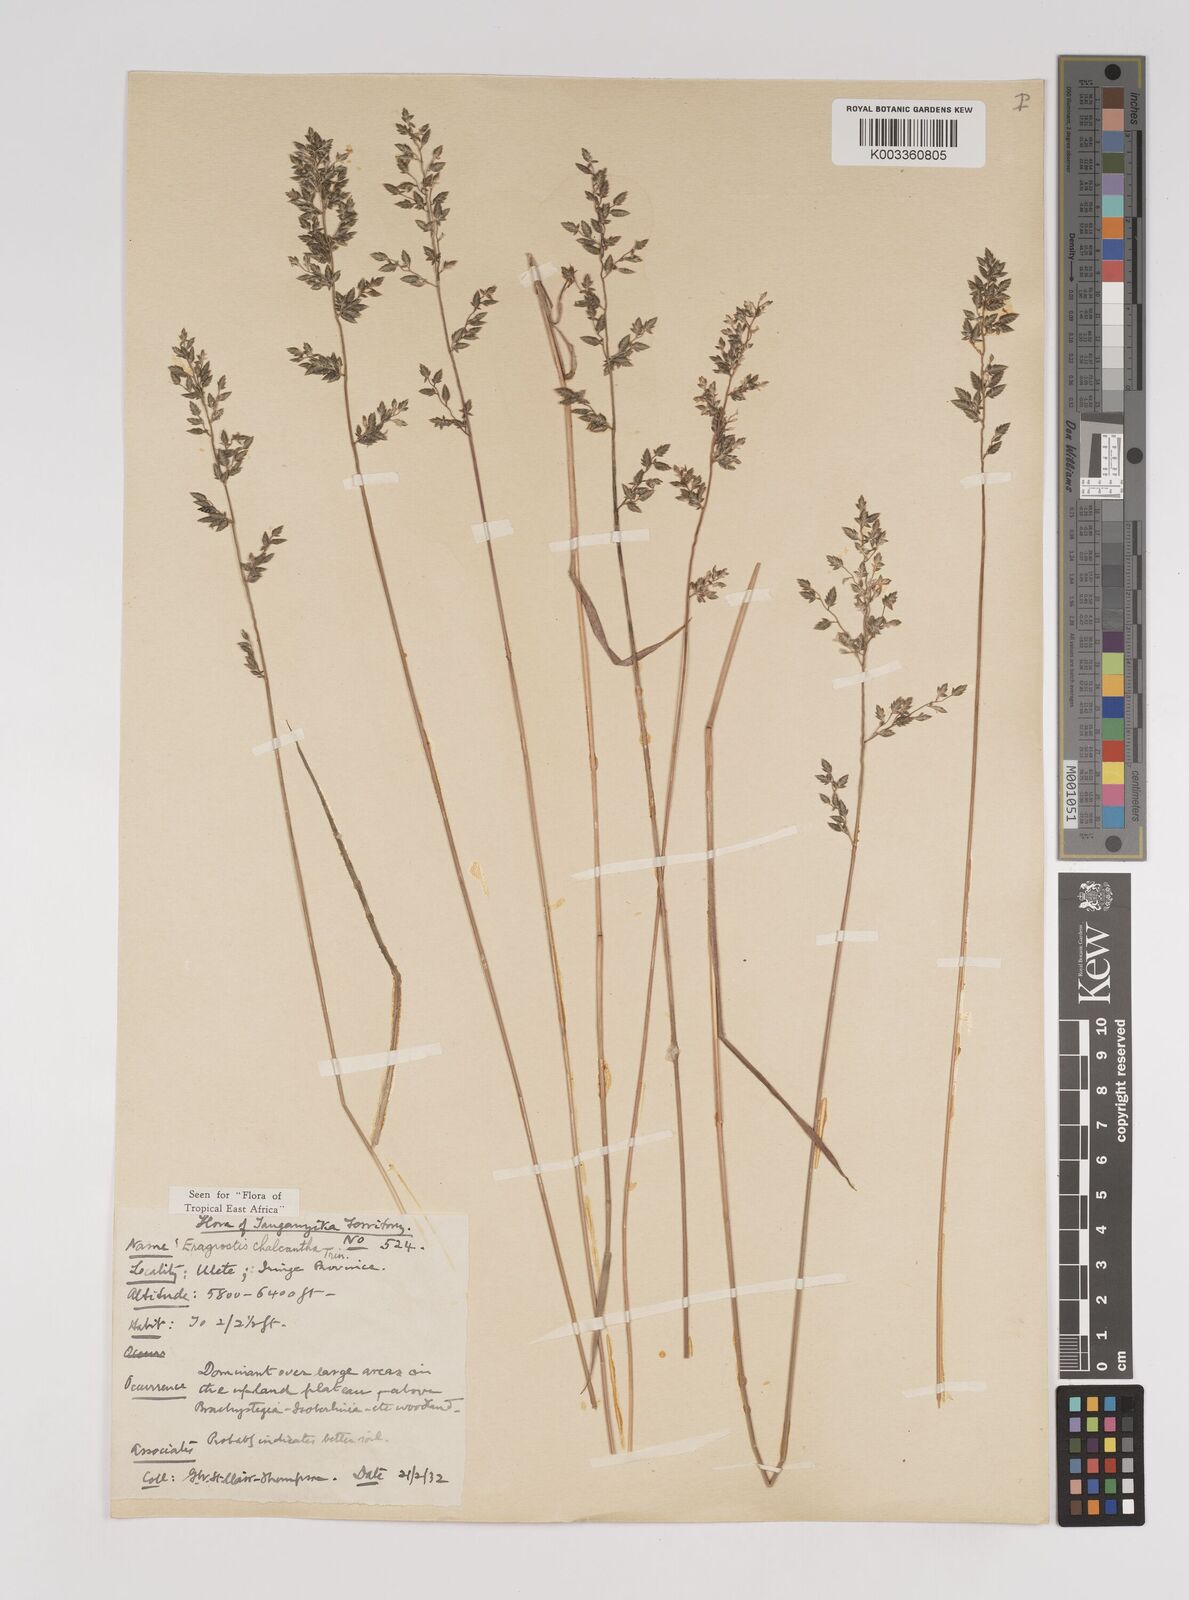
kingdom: Plantae
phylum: Tracheophyta
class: Liliopsida
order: Poales
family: Poaceae
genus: Eragrostis
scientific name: Eragrostis racemosa
